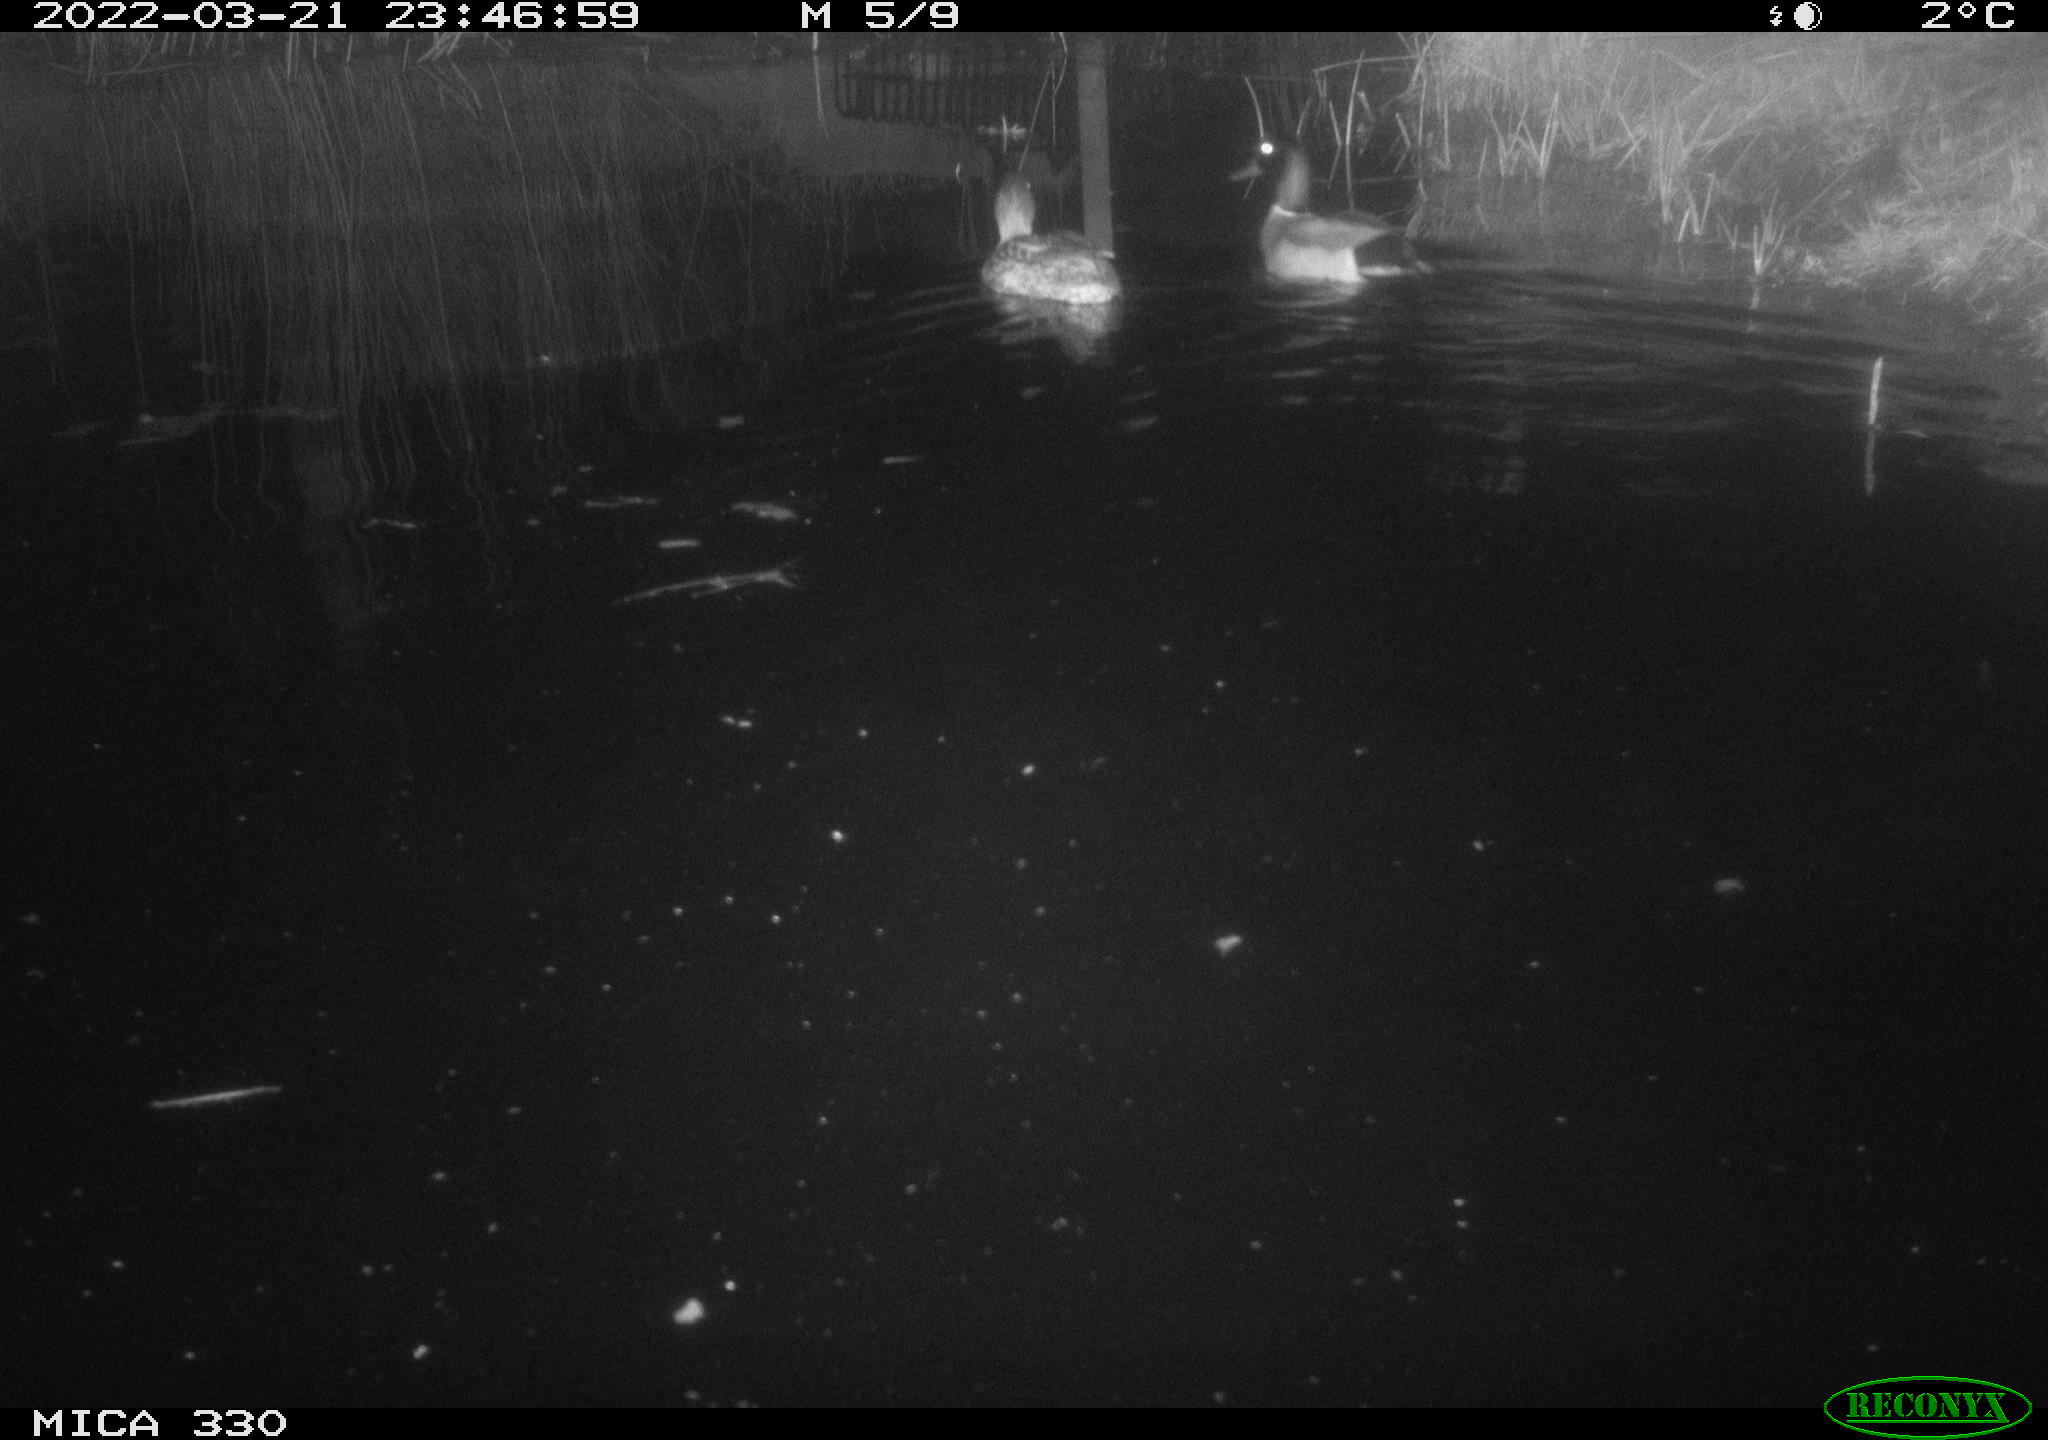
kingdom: Animalia
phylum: Chordata
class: Aves
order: Gruiformes
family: Rallidae
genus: Gallinula
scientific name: Gallinula chloropus
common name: Common moorhen
